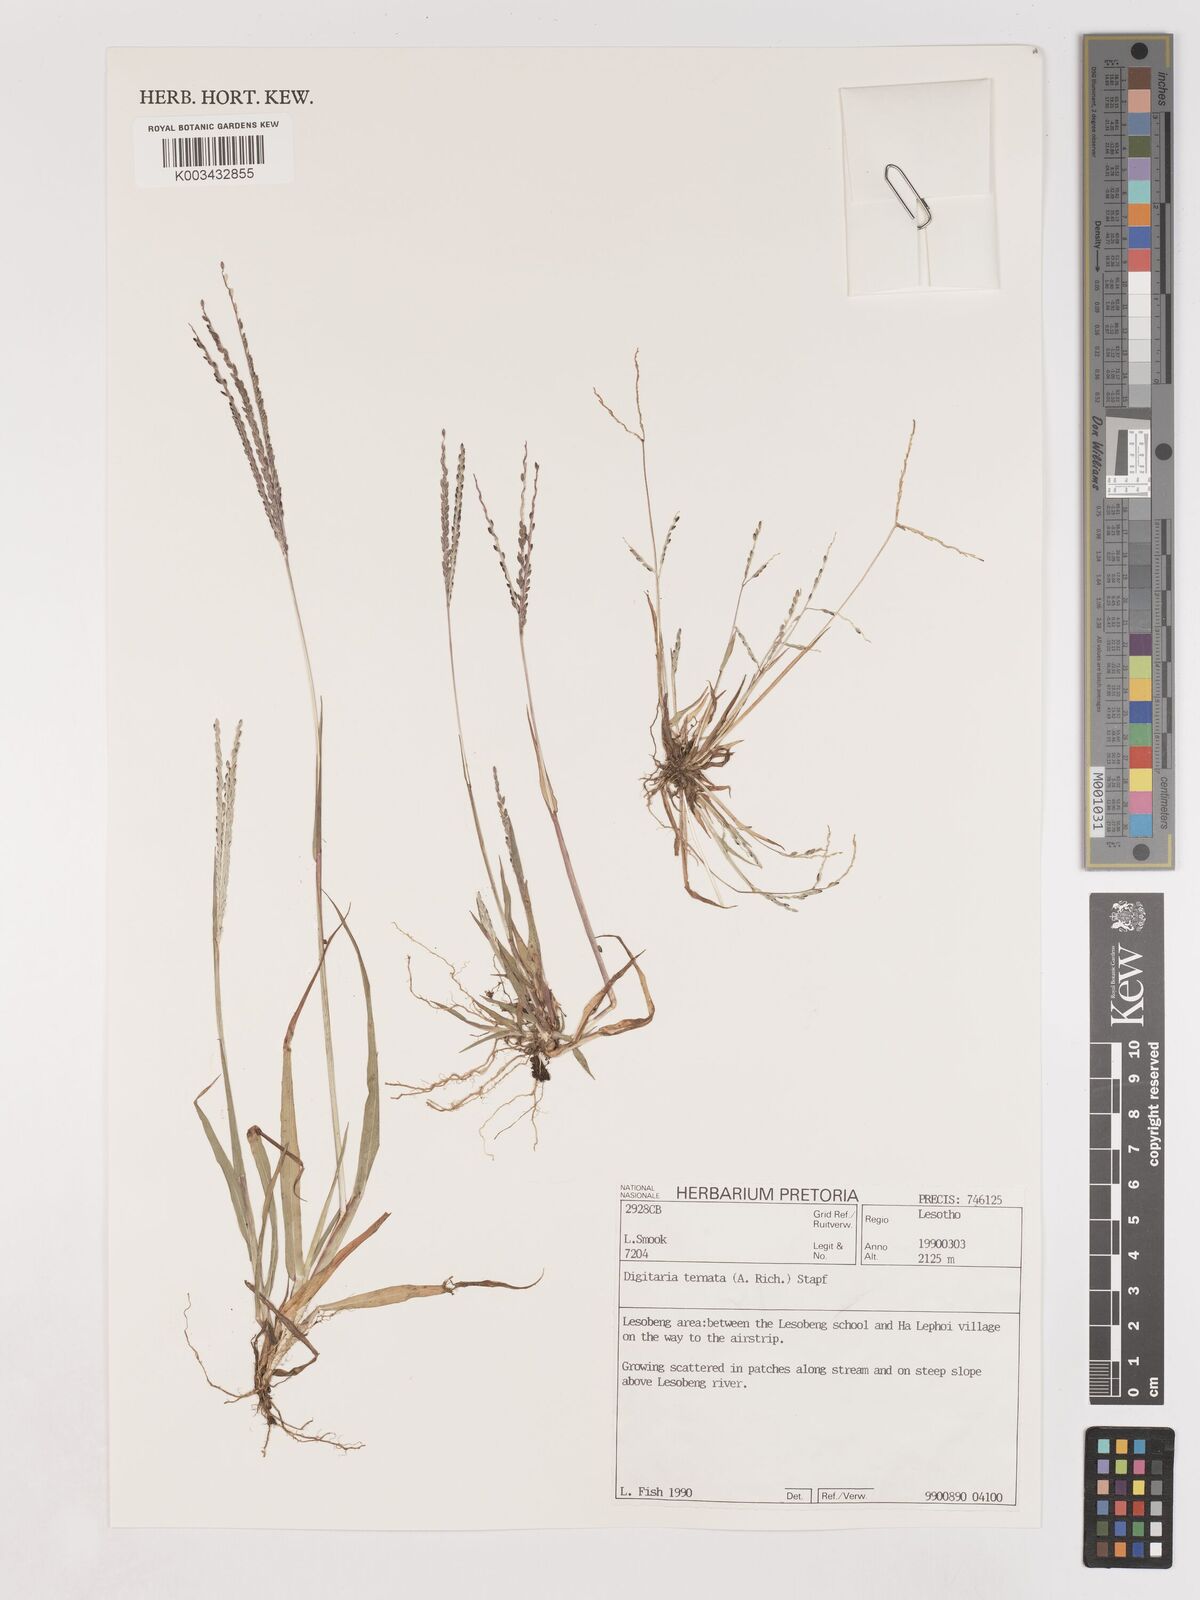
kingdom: Plantae
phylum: Tracheophyta
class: Liliopsida
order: Poales
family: Poaceae
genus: Digitaria
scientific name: Digitaria ternata
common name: Blackseed crabgrass
